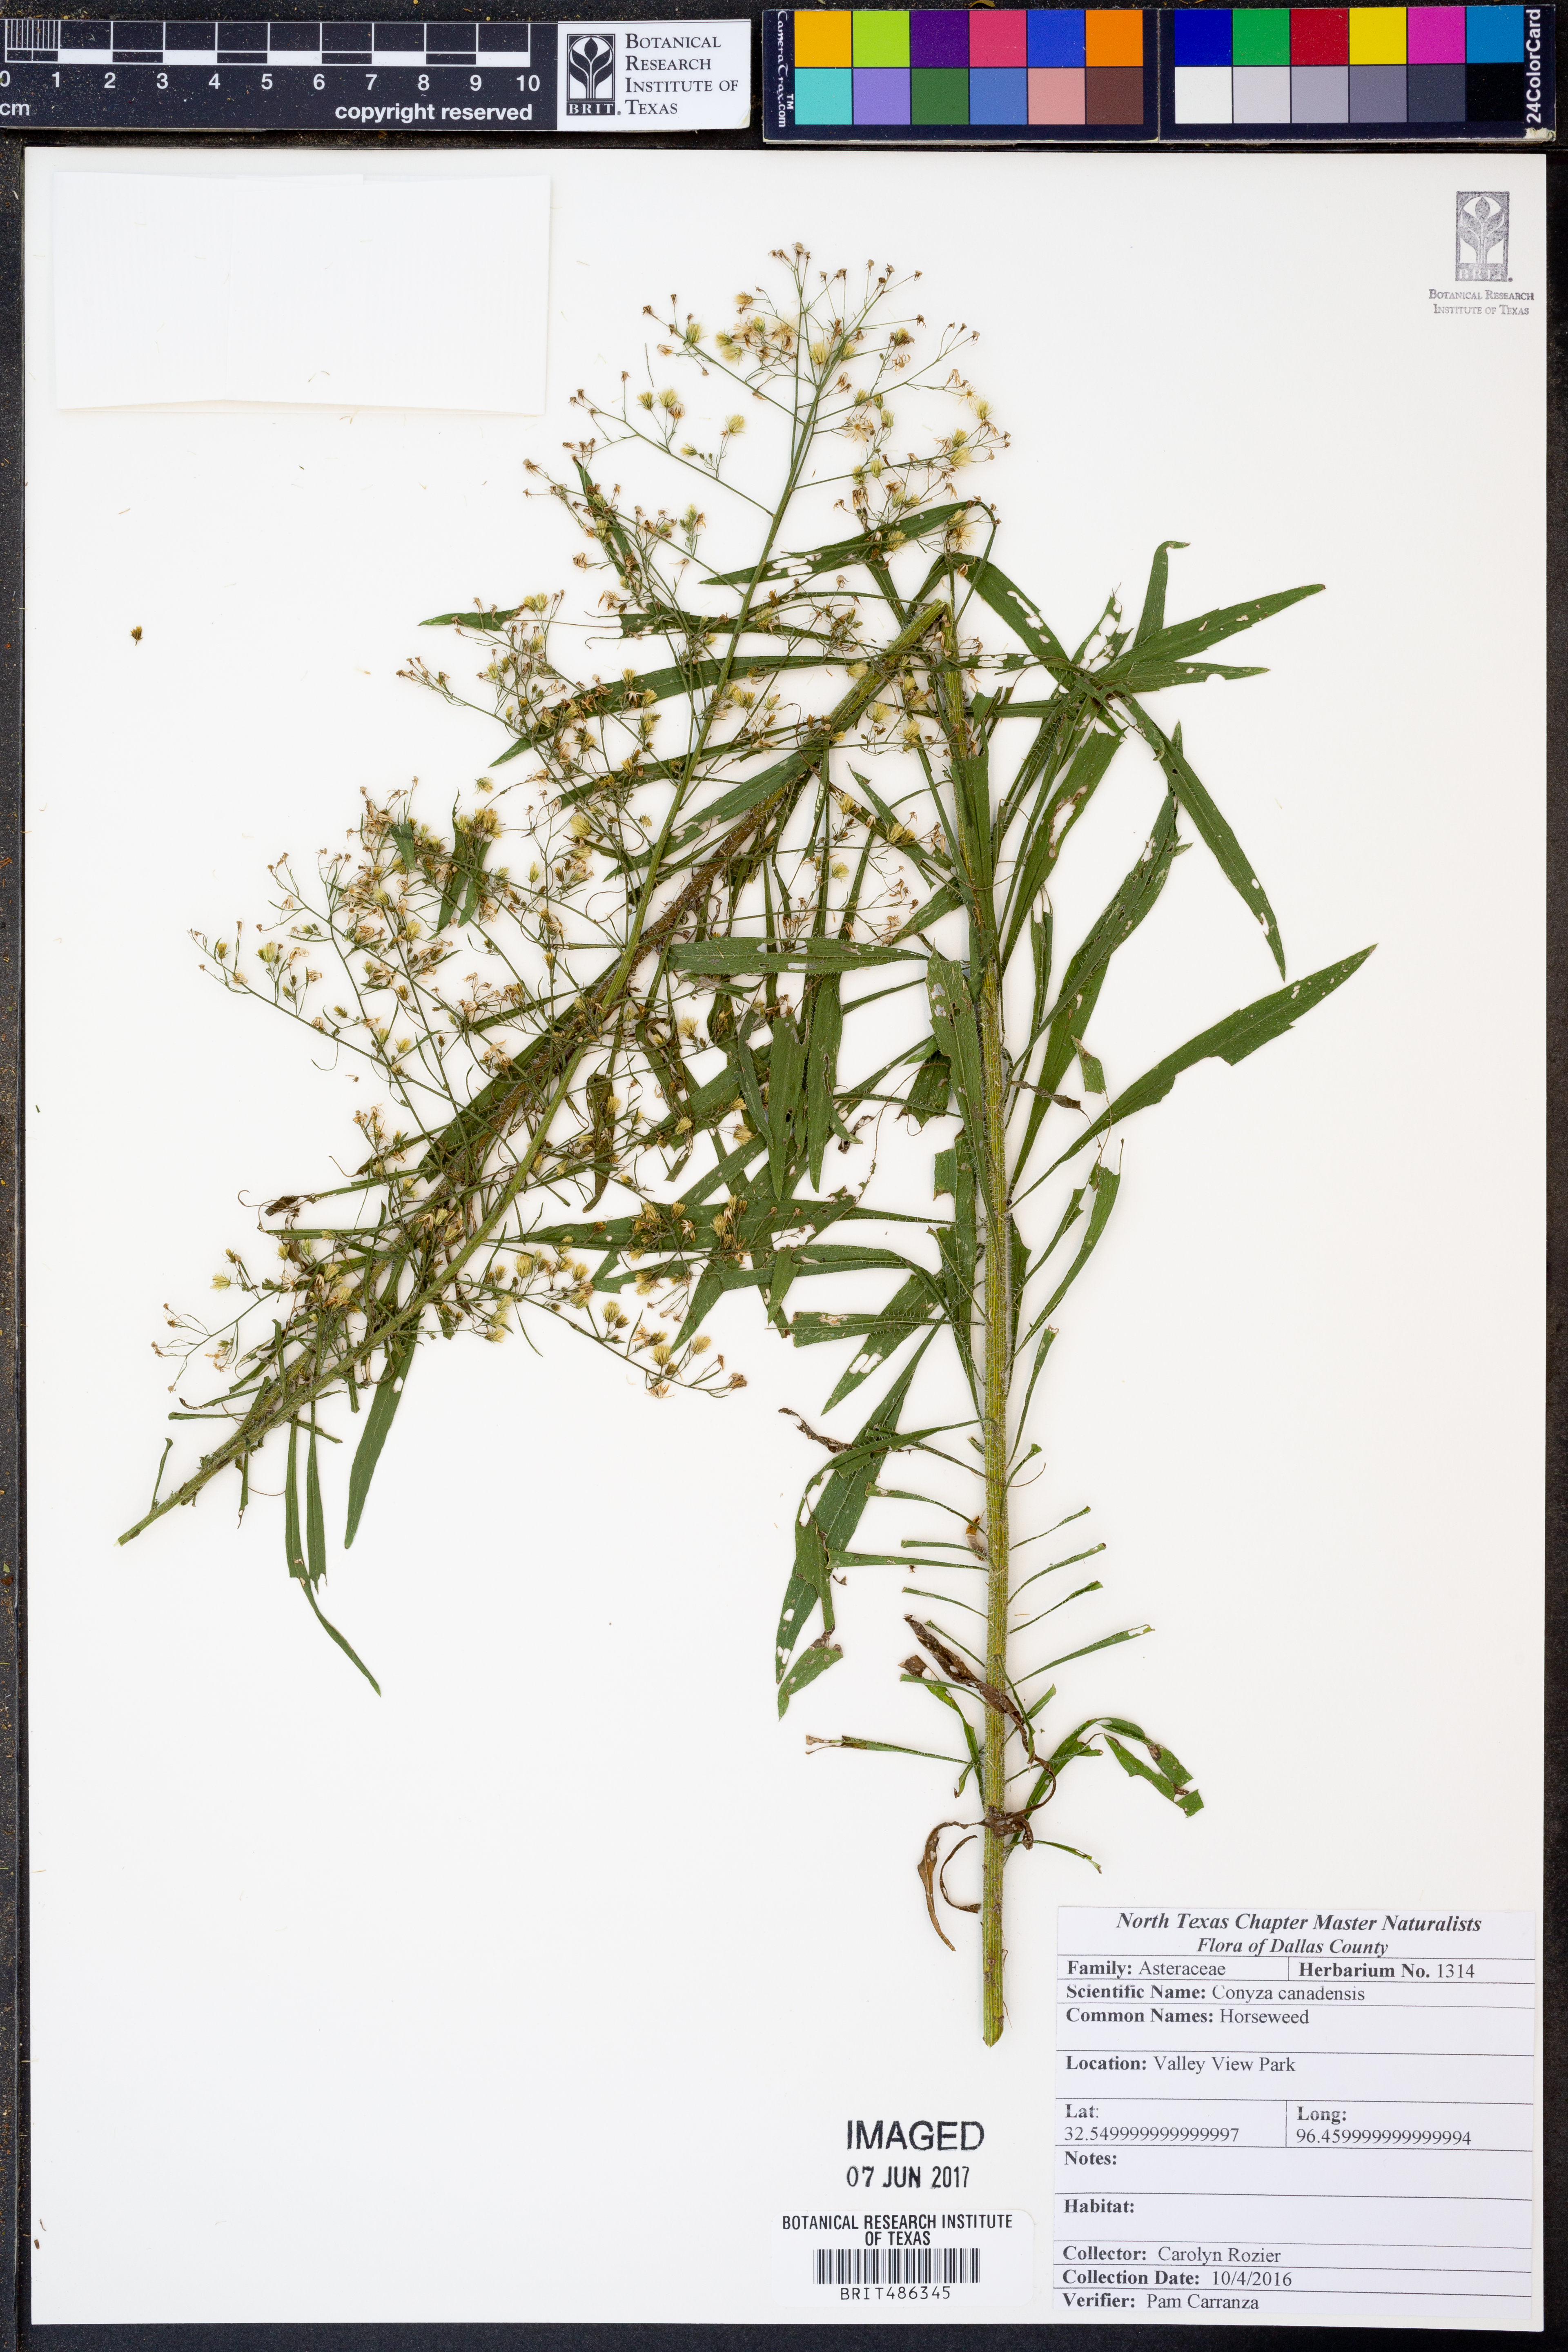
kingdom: Plantae
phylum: Tracheophyta
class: Magnoliopsida
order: Asterales
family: Asteraceae
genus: Erigeron
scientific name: Erigeron canadensis
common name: Canadian fleabane
